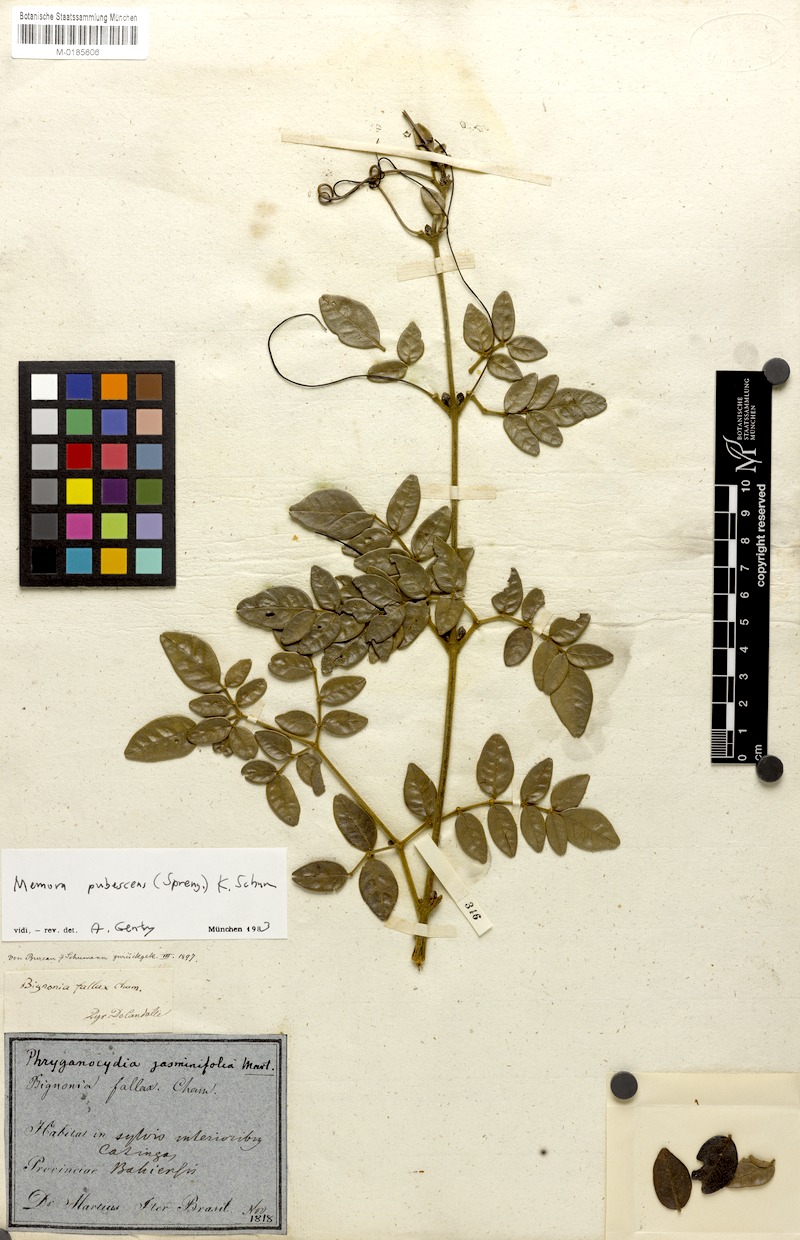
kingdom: Plantae
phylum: Tracheophyta
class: Magnoliopsida
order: Lamiales
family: Bignoniaceae
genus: Adenocalymma
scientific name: Adenocalymma pubescens
